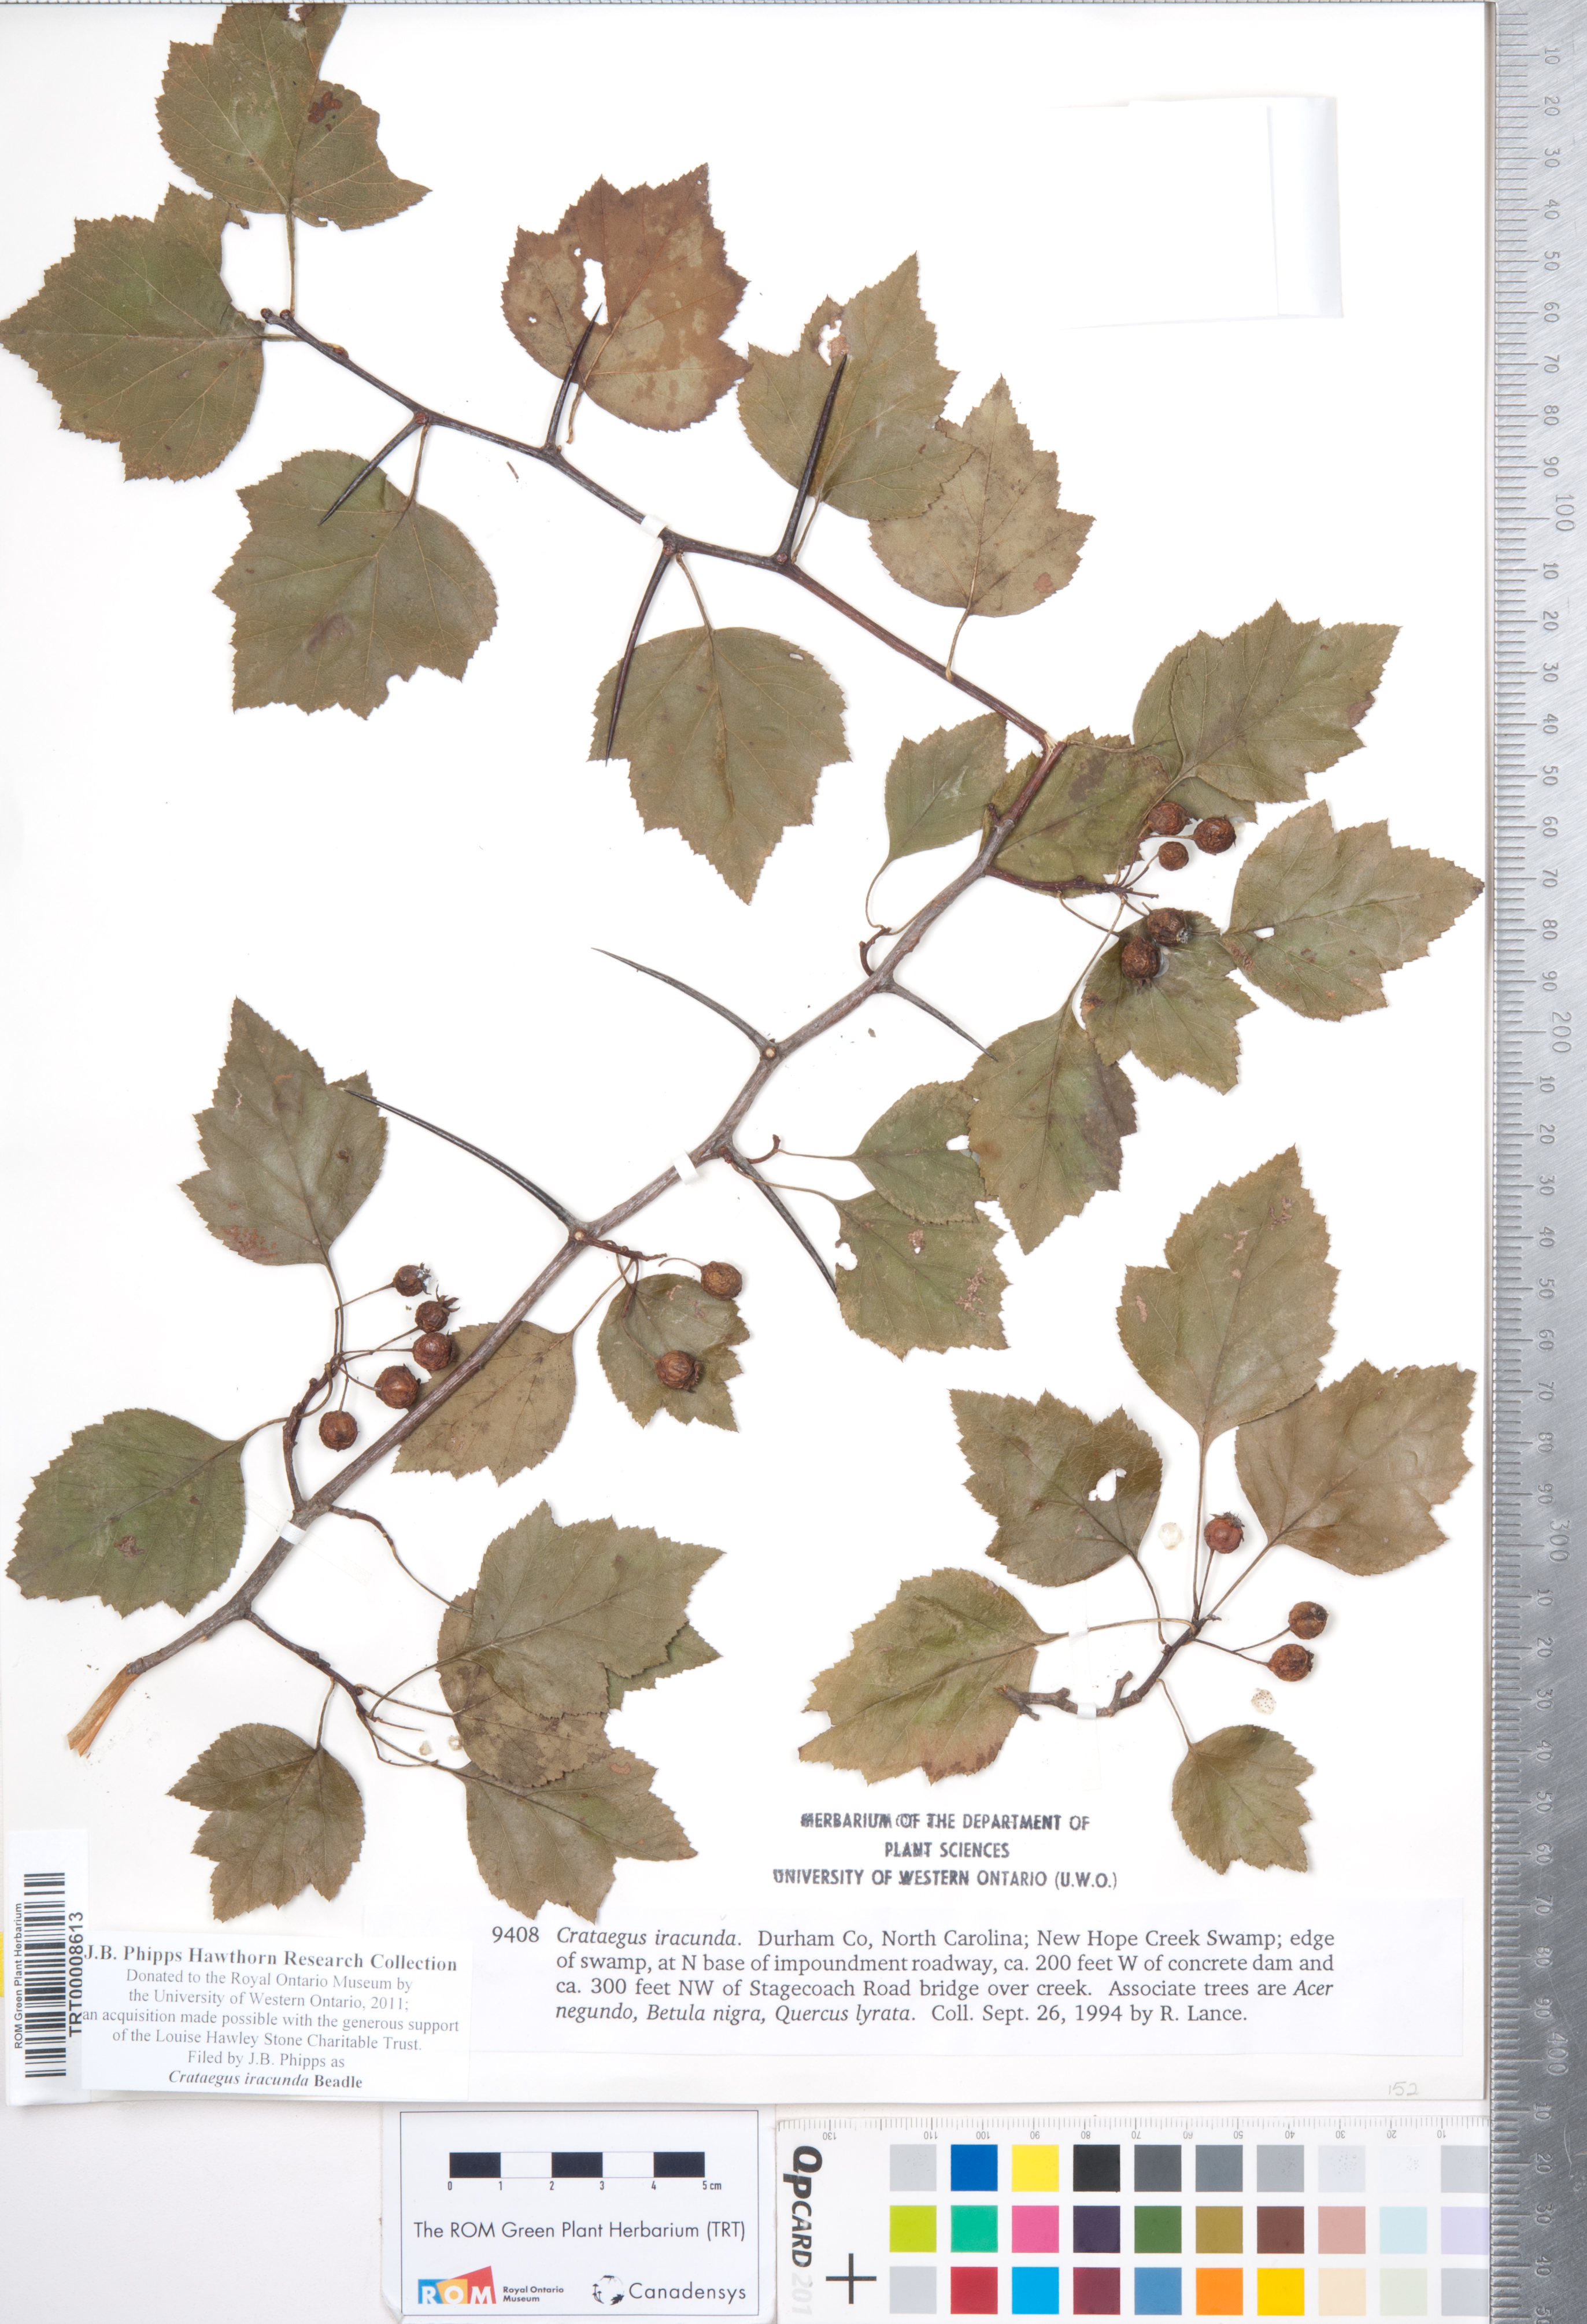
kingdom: Plantae
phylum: Tracheophyta
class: Magnoliopsida
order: Rosales
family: Rosaceae
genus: Crataegus
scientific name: Crataegus iracunda
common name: Stolon-bearing hawthorn
